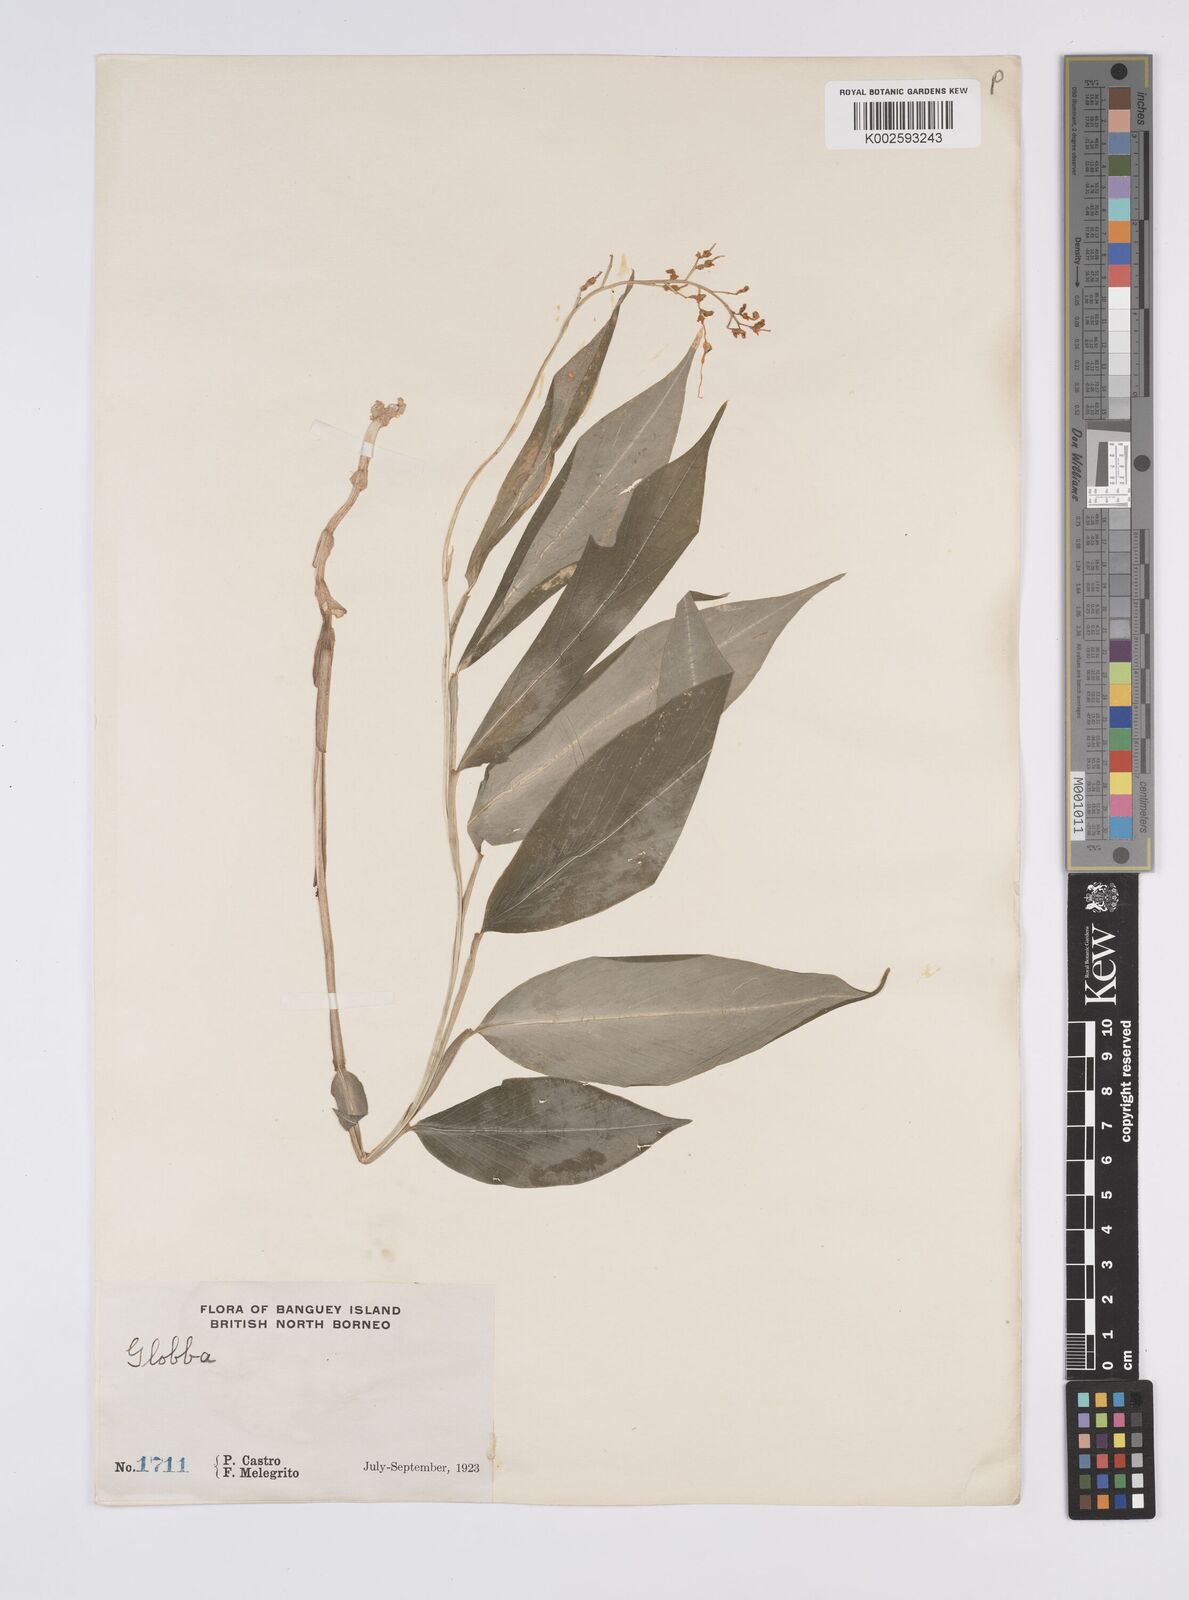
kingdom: Plantae
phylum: Tracheophyta
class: Liliopsida
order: Zingiberales
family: Zingiberaceae
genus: Globba
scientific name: Globba
